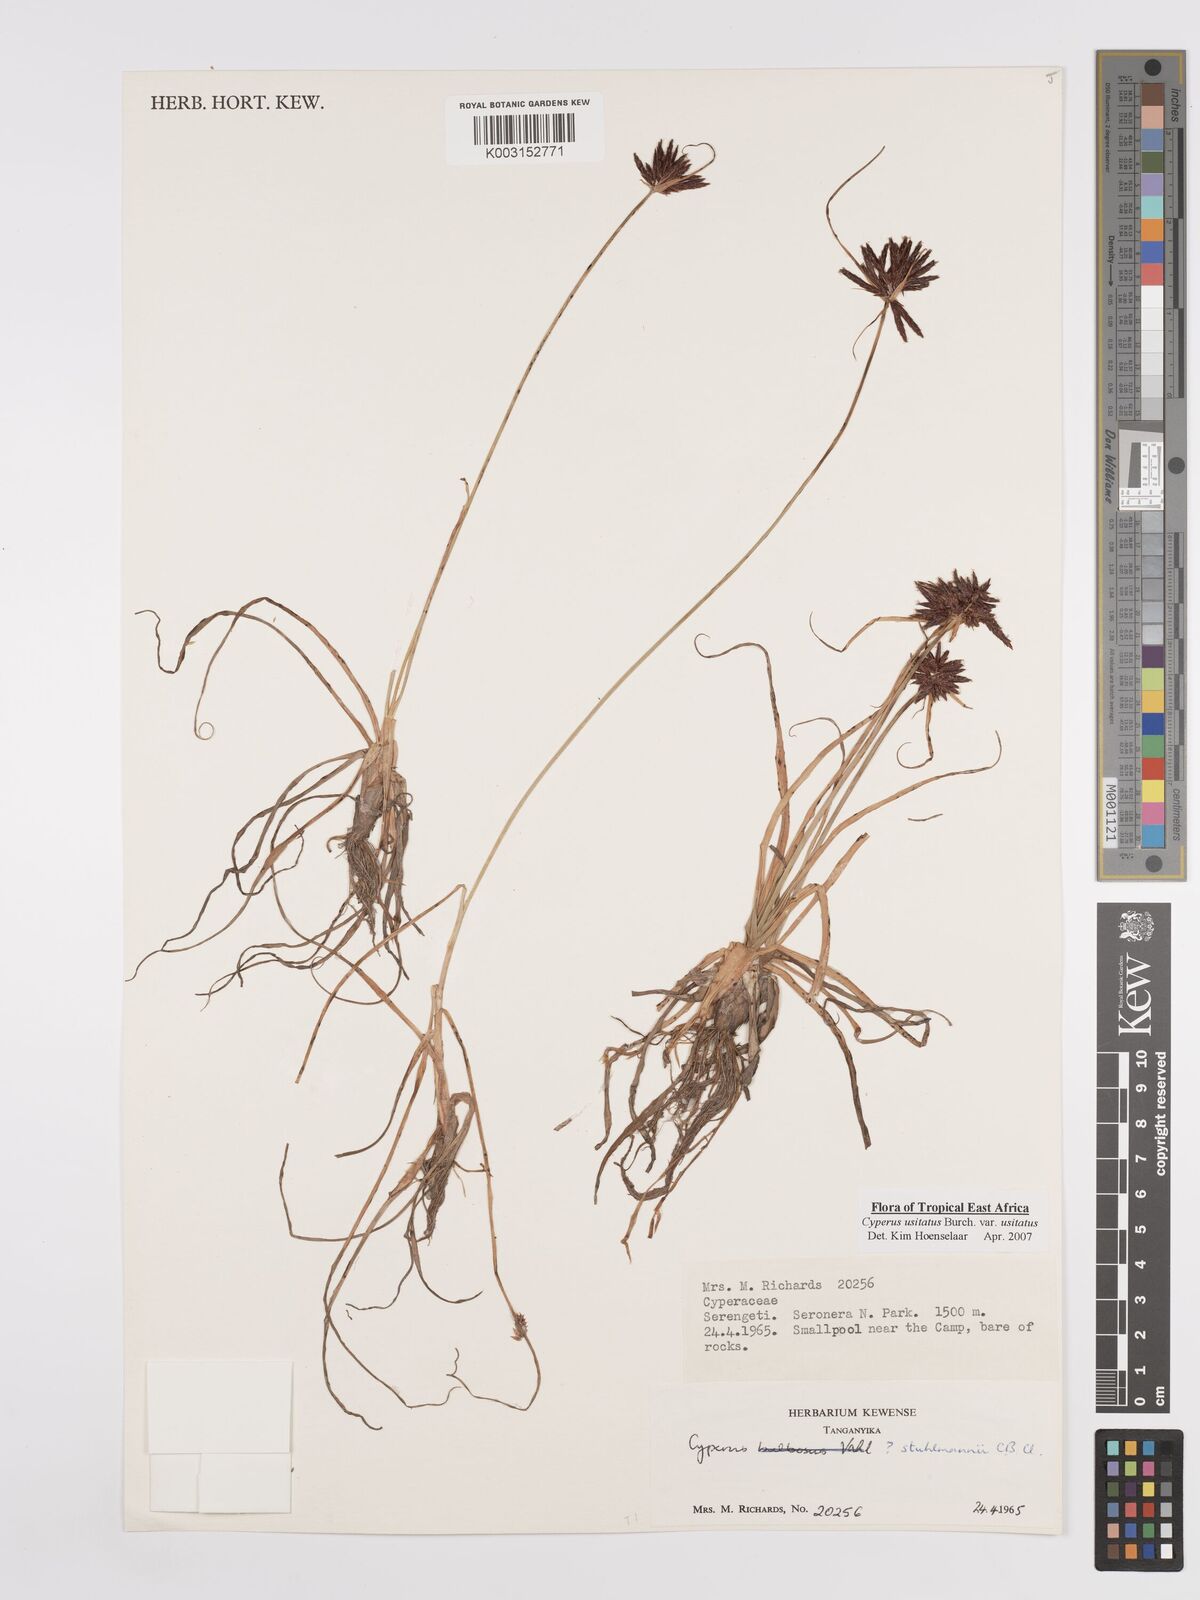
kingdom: Plantae
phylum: Tracheophyta
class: Liliopsida
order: Poales
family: Cyperaceae
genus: Cyperus
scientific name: Cyperus usitatus
